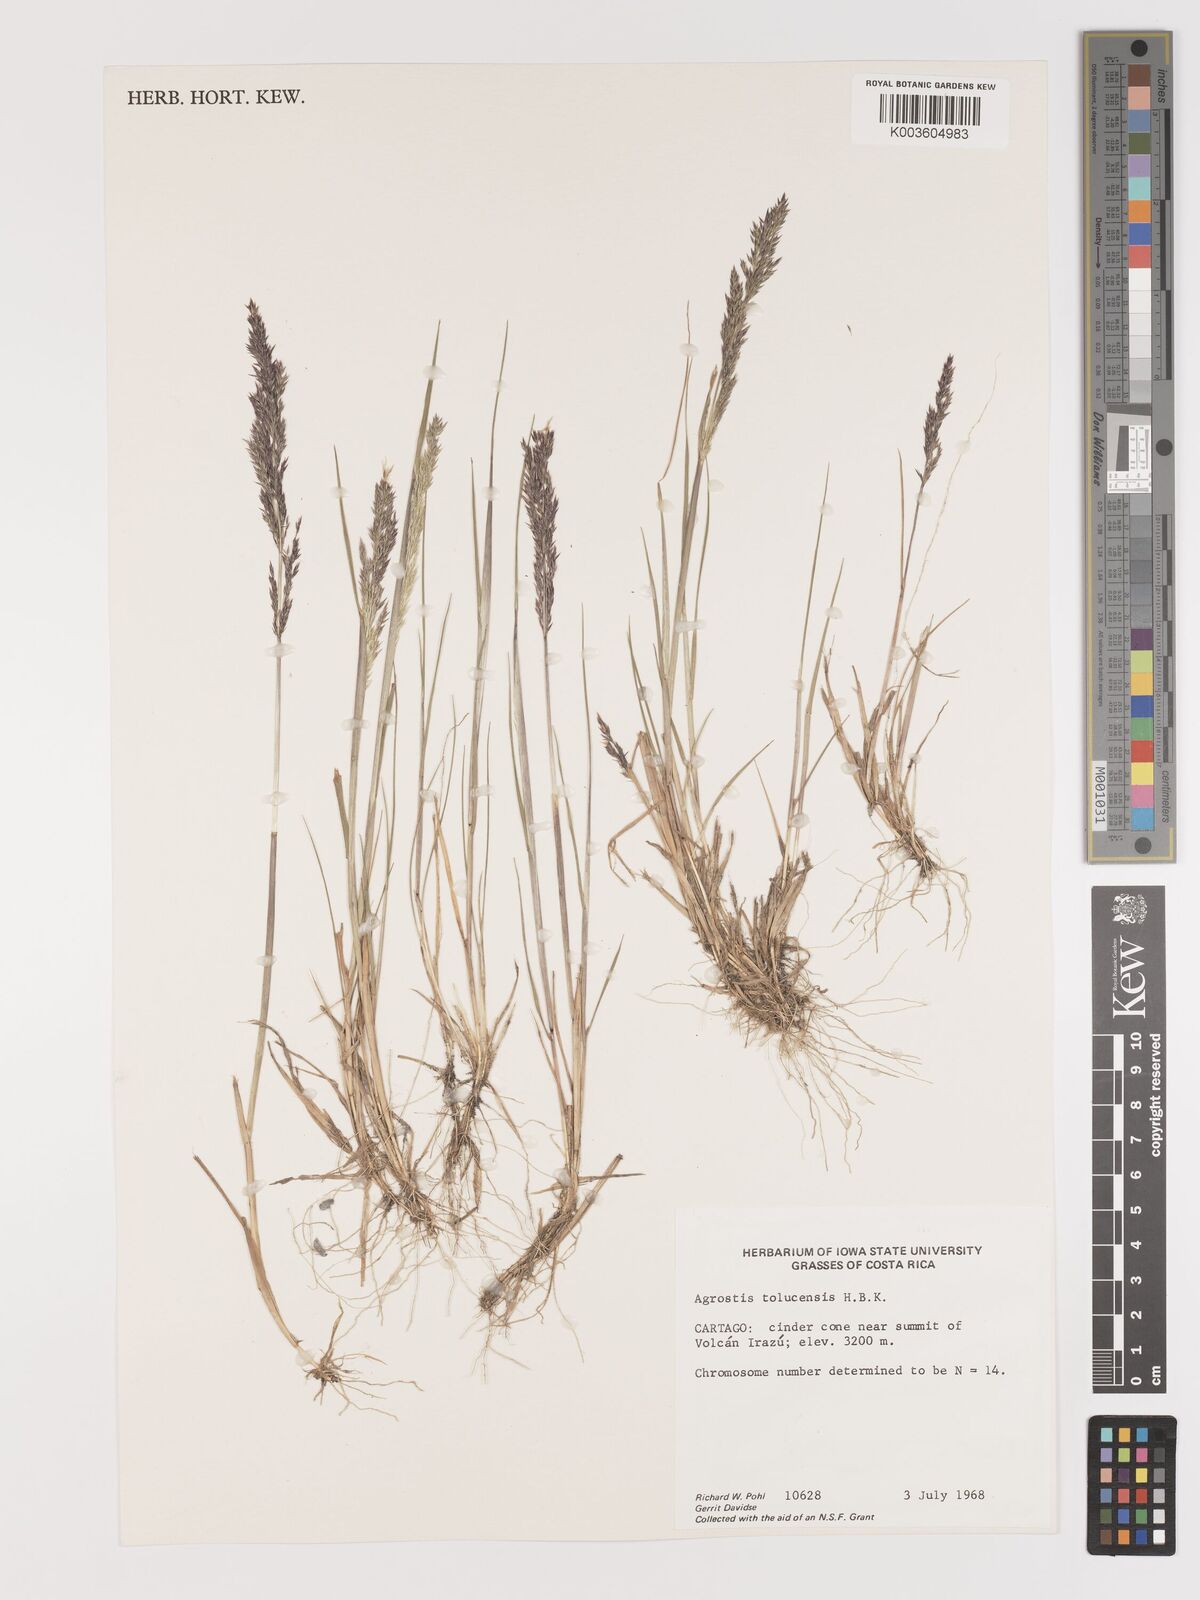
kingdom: Plantae
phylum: Tracheophyta
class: Liliopsida
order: Poales
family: Poaceae
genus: Agrostis
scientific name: Agrostis tolucensis
